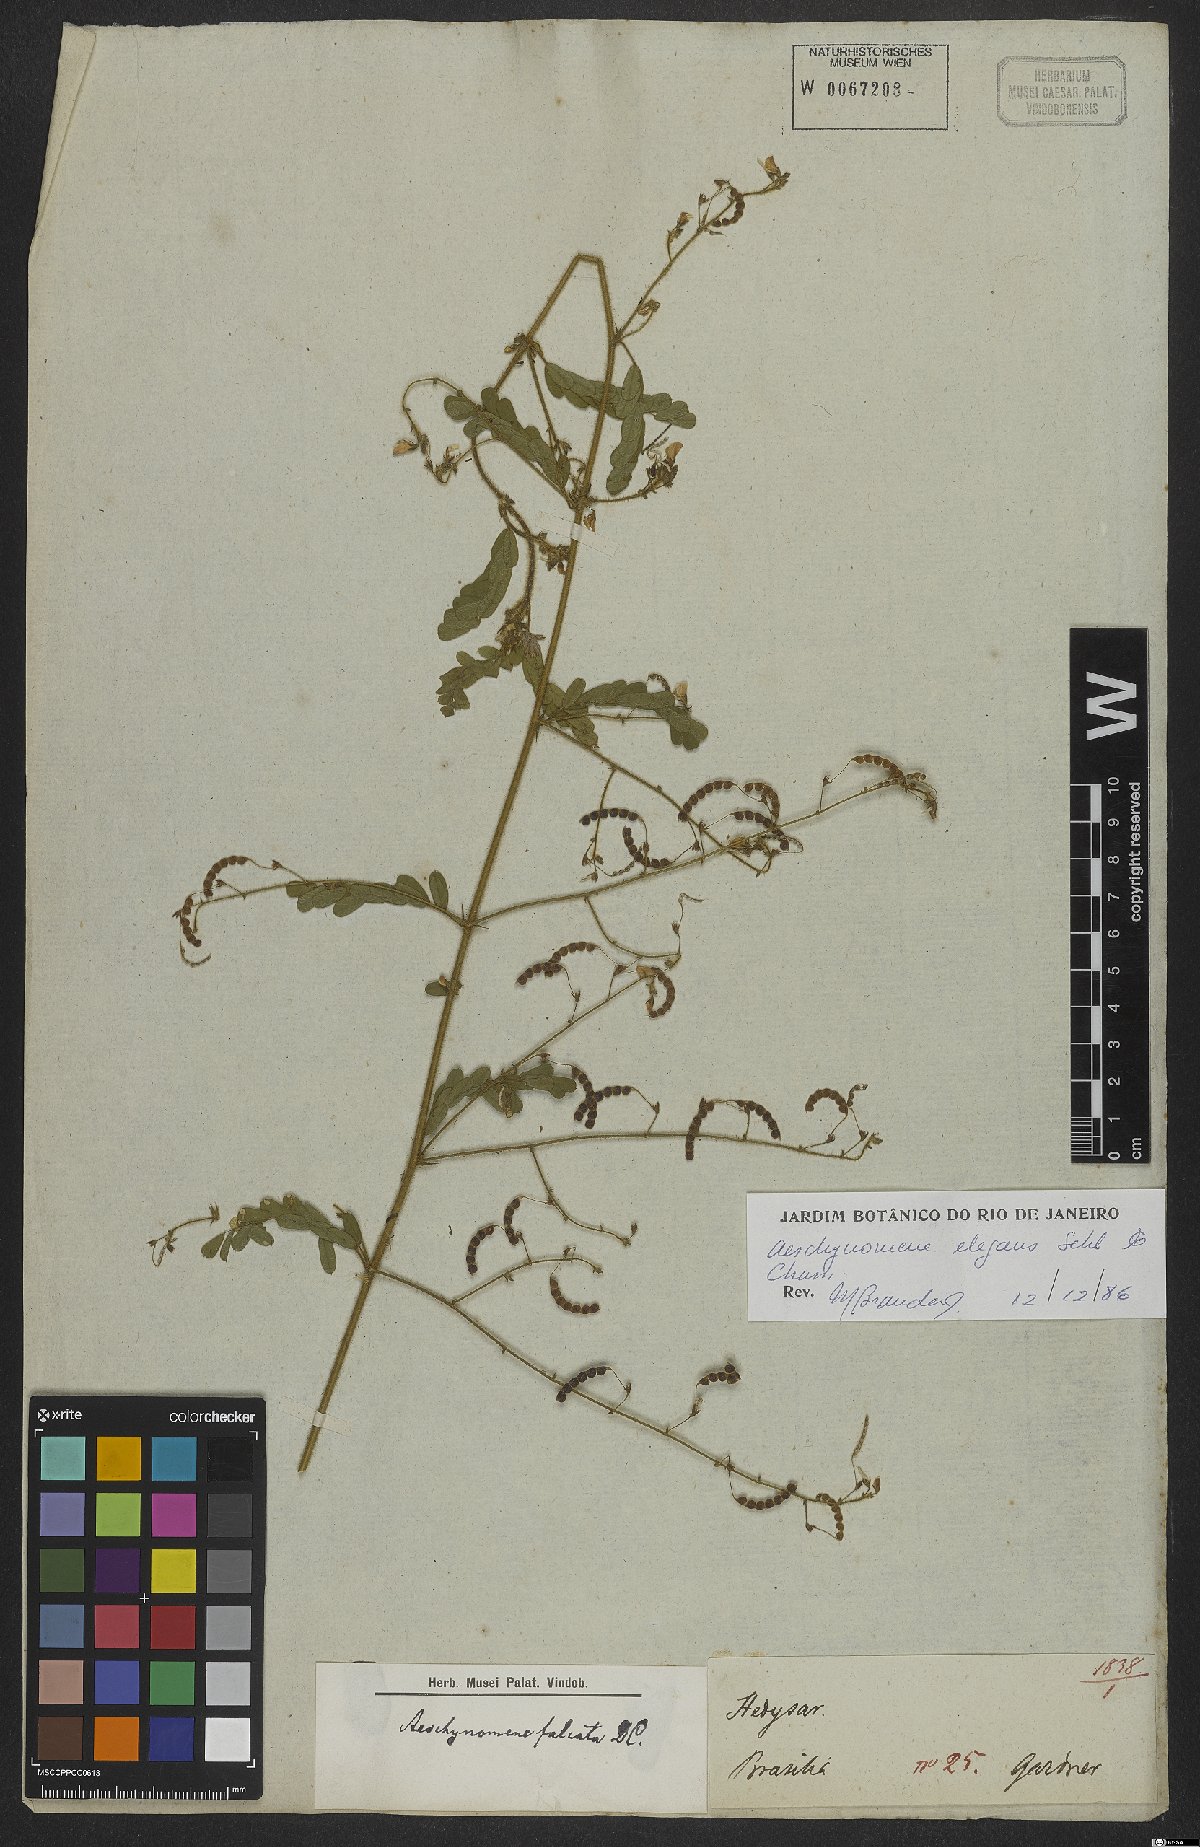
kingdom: Plantae
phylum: Tracheophyta
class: Magnoliopsida
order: Fabales
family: Fabaceae
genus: Ctenodon
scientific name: Ctenodon elegans
